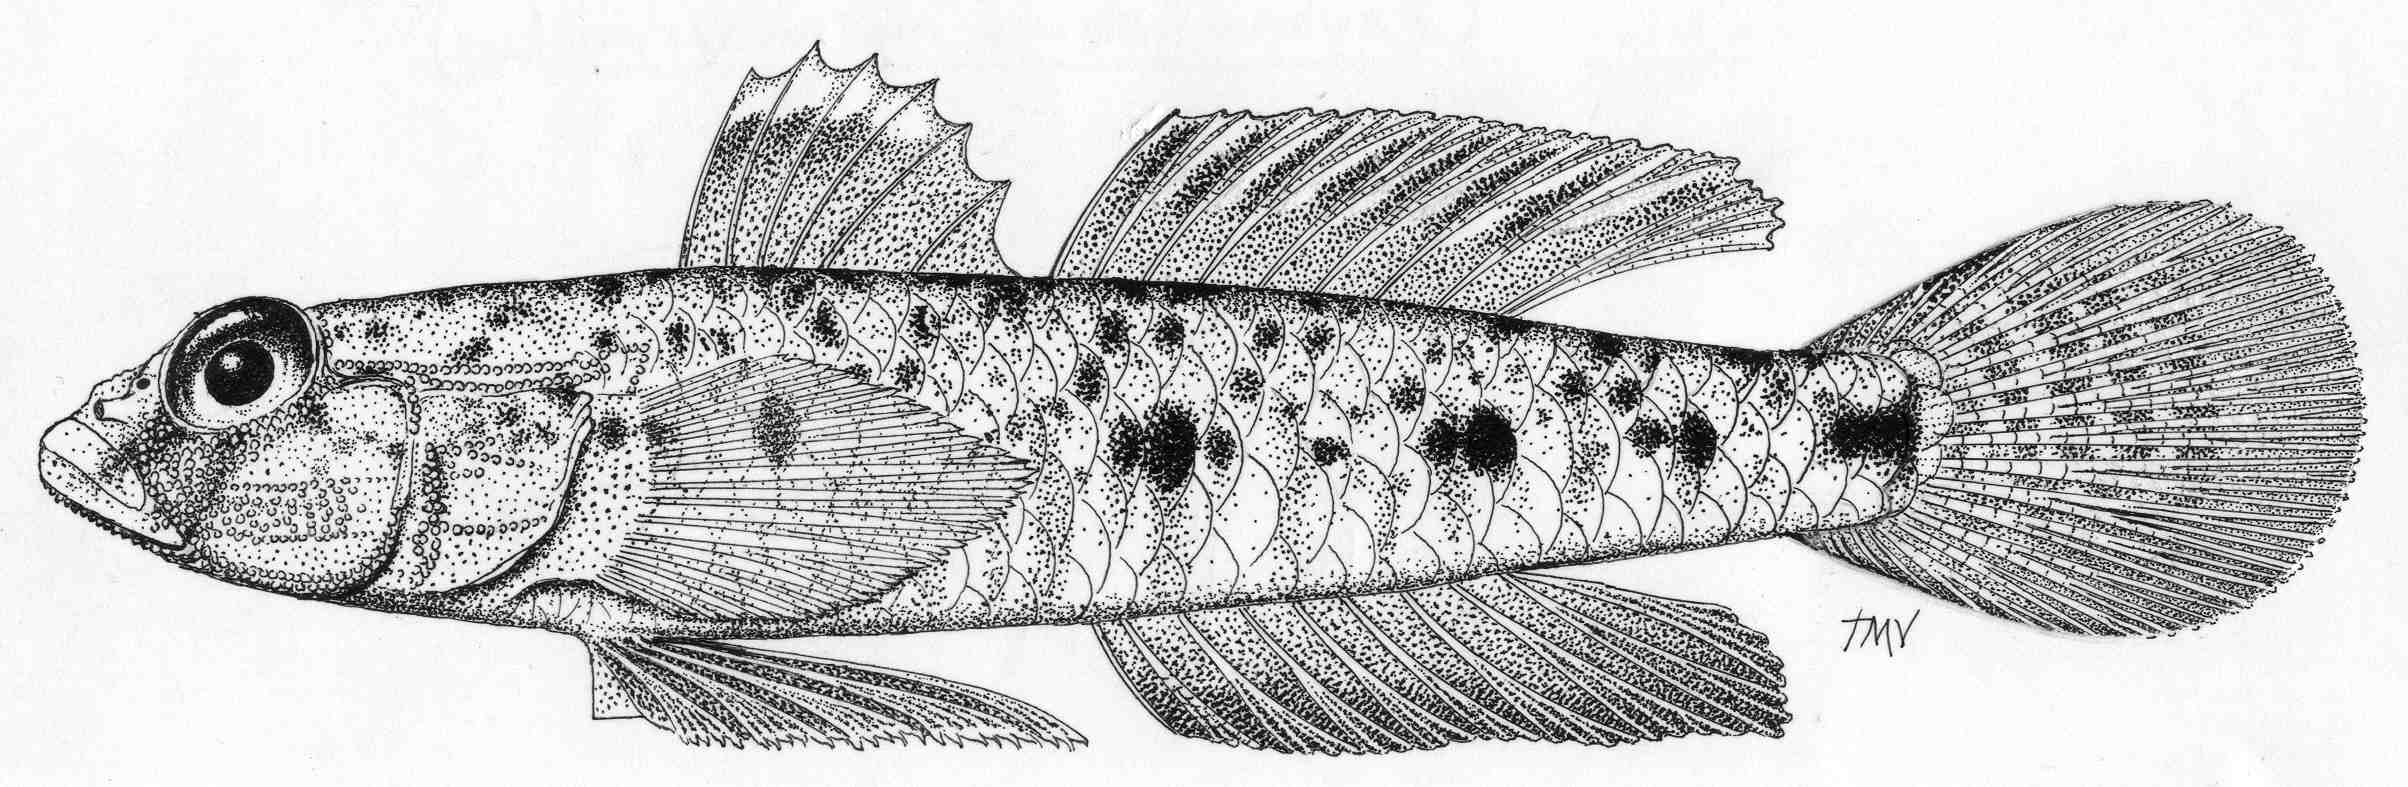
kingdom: Animalia
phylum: Chordata
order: Perciformes
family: Gobiidae
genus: Favonigobius
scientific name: Favonigobius melanobranchus
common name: Blackthroat goby
